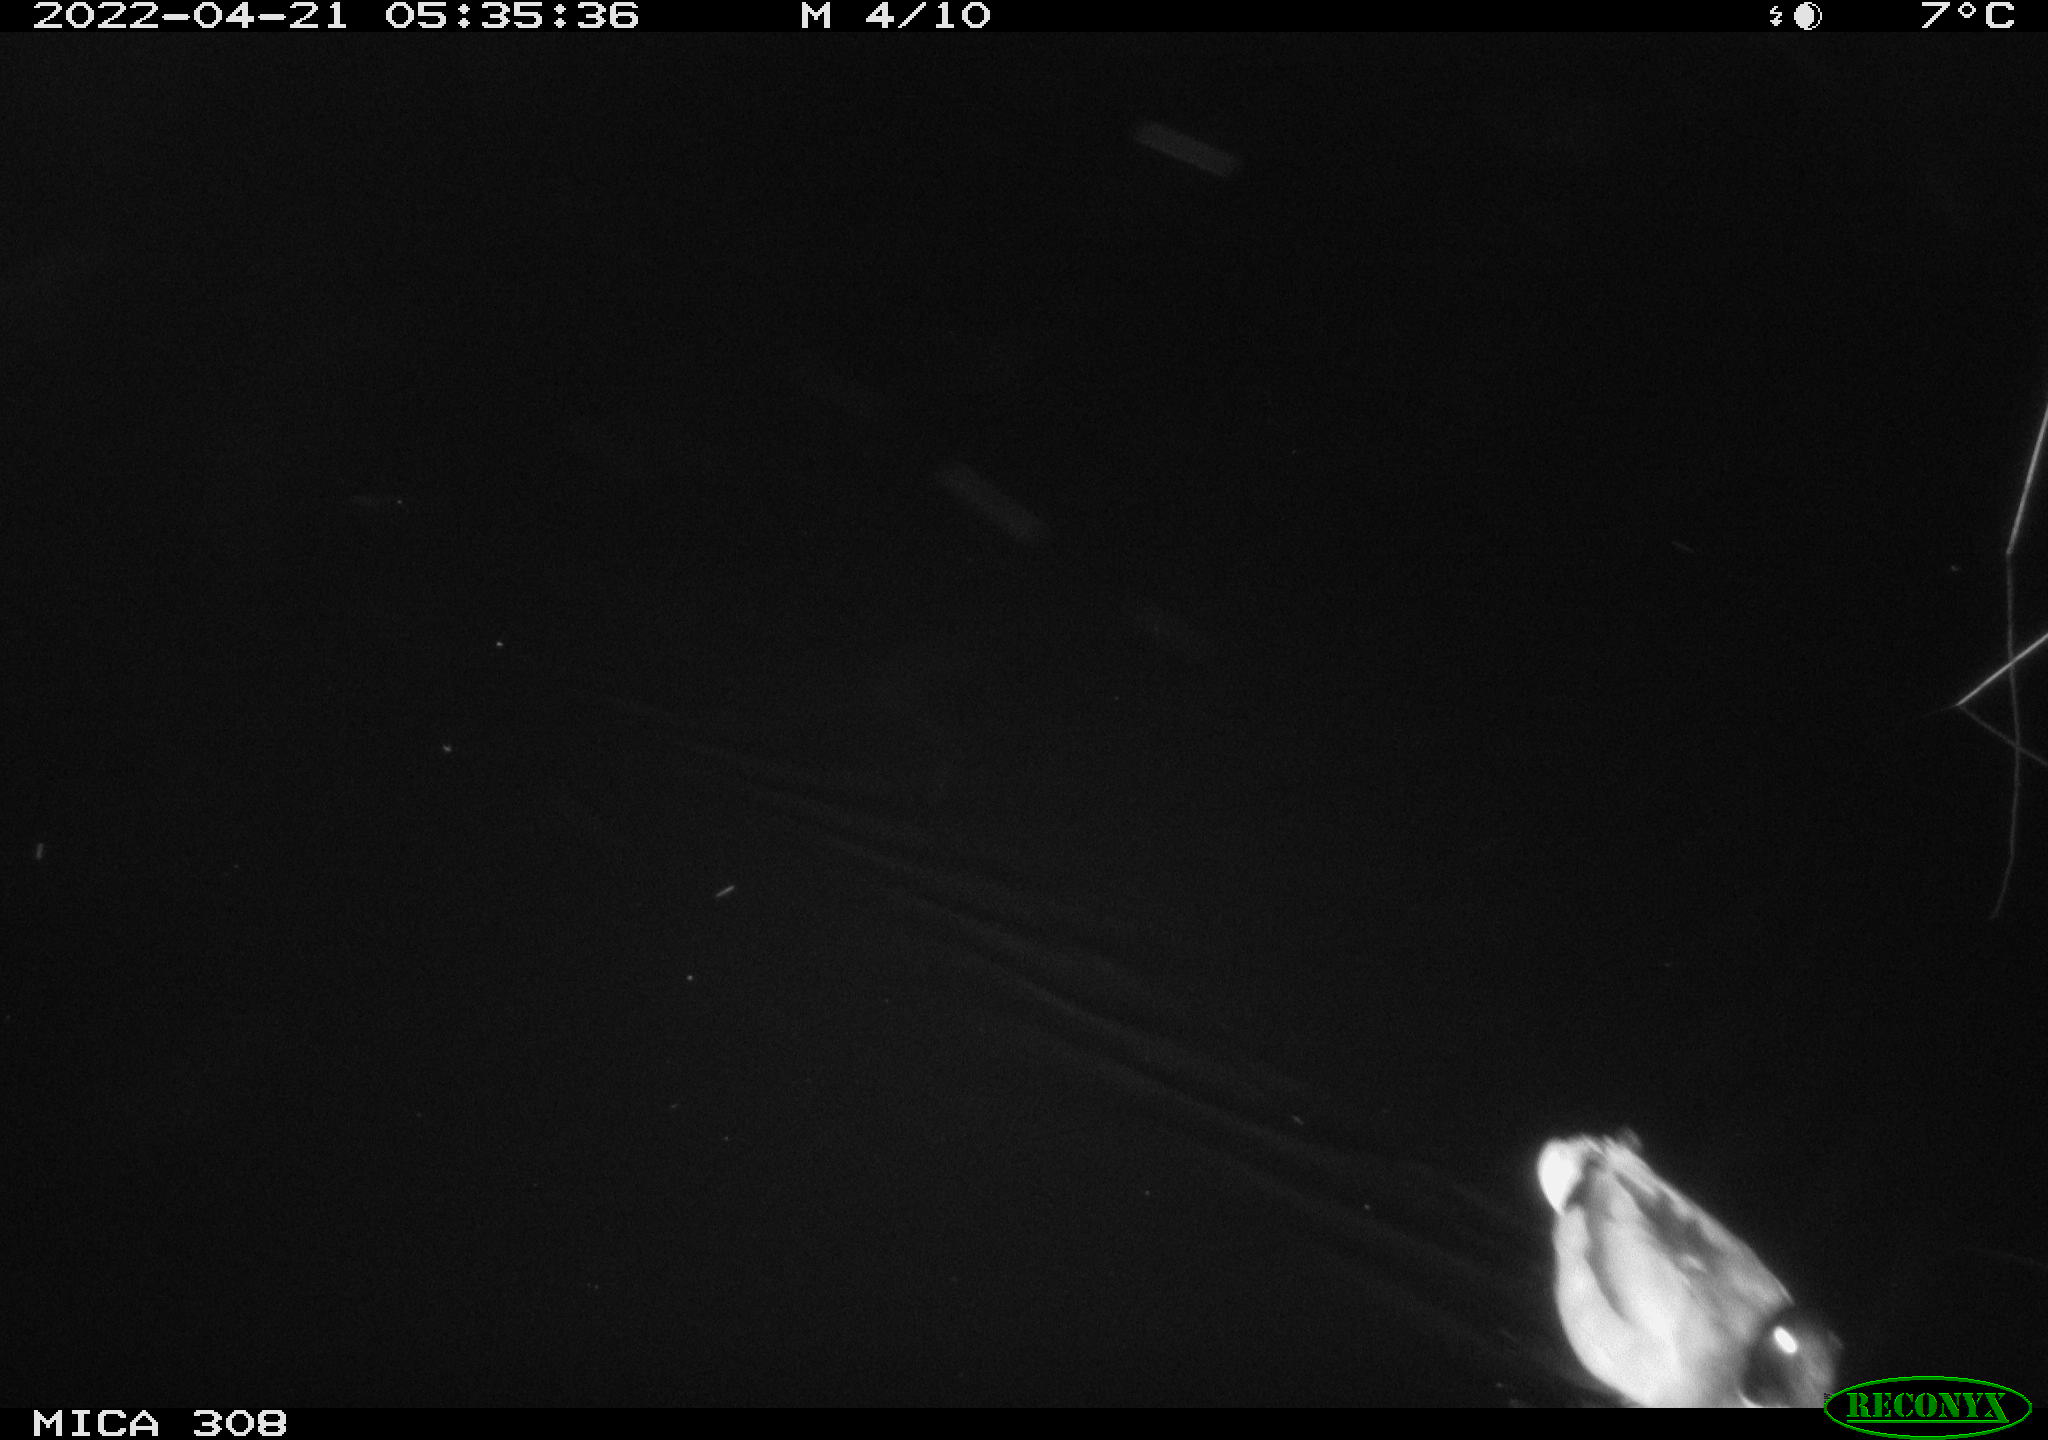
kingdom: Animalia
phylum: Chordata
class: Aves
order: Anseriformes
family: Anatidae
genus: Anas
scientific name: Anas platyrhynchos
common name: Mallard
